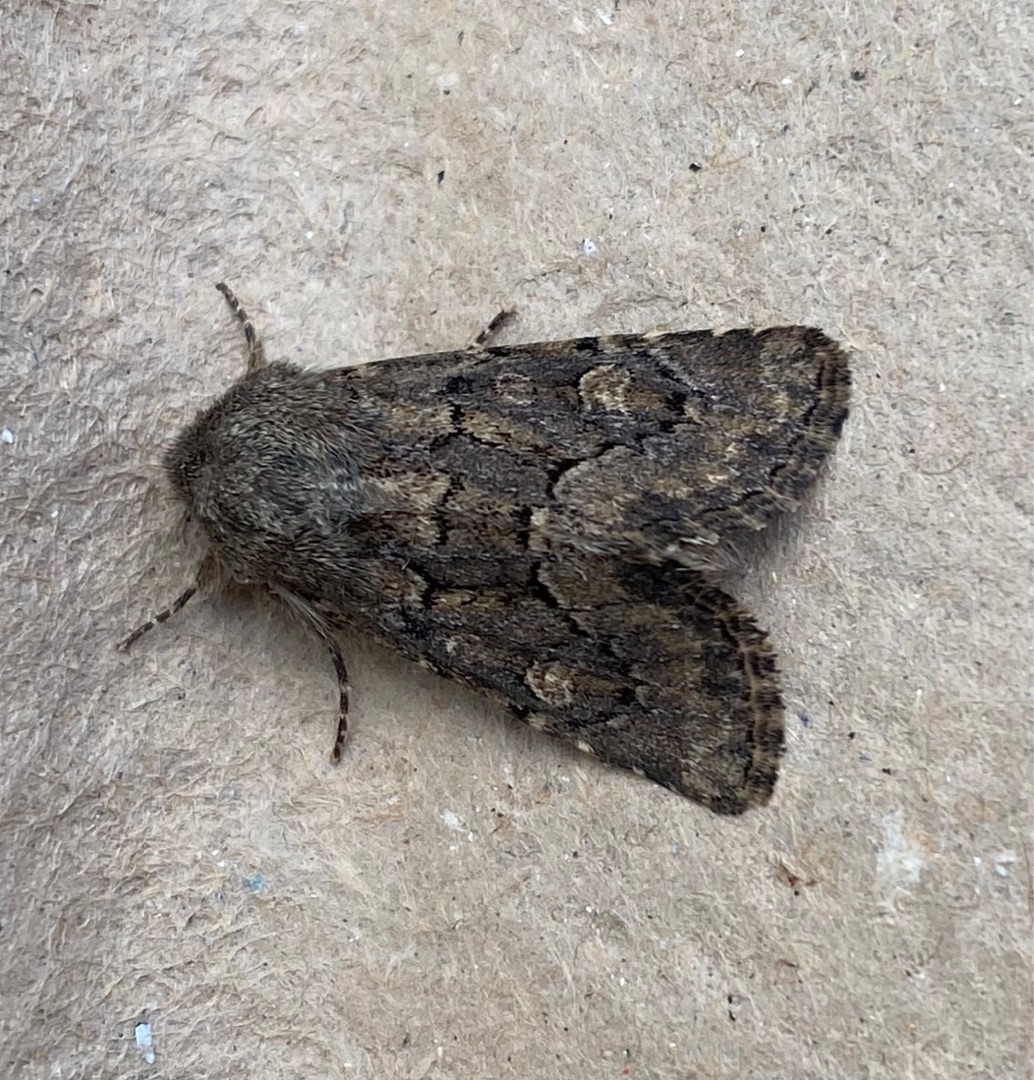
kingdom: Animalia
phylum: Arthropoda
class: Insecta
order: Lepidoptera
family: Noctuidae
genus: Luperina
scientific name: Luperina testacea
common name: Frøgræsugle
